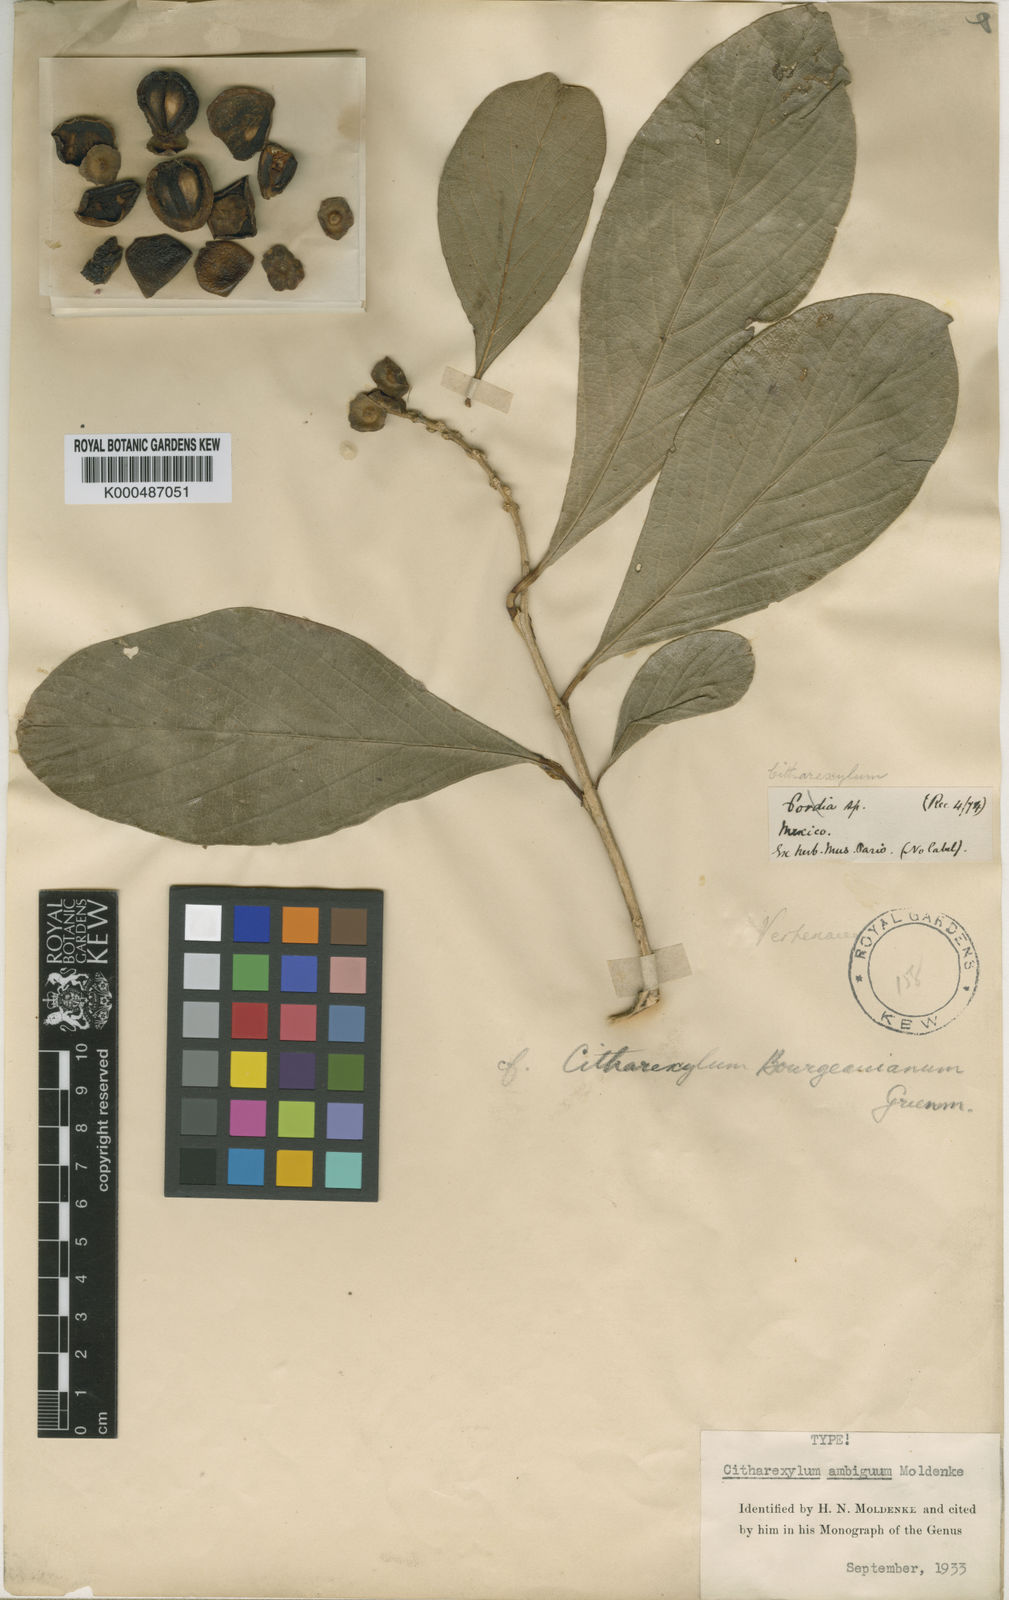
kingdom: Plantae
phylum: Tracheophyta
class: Magnoliopsida
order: Lamiales
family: Verbenaceae
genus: Citharexylum
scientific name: Citharexylum bourgeauanum
